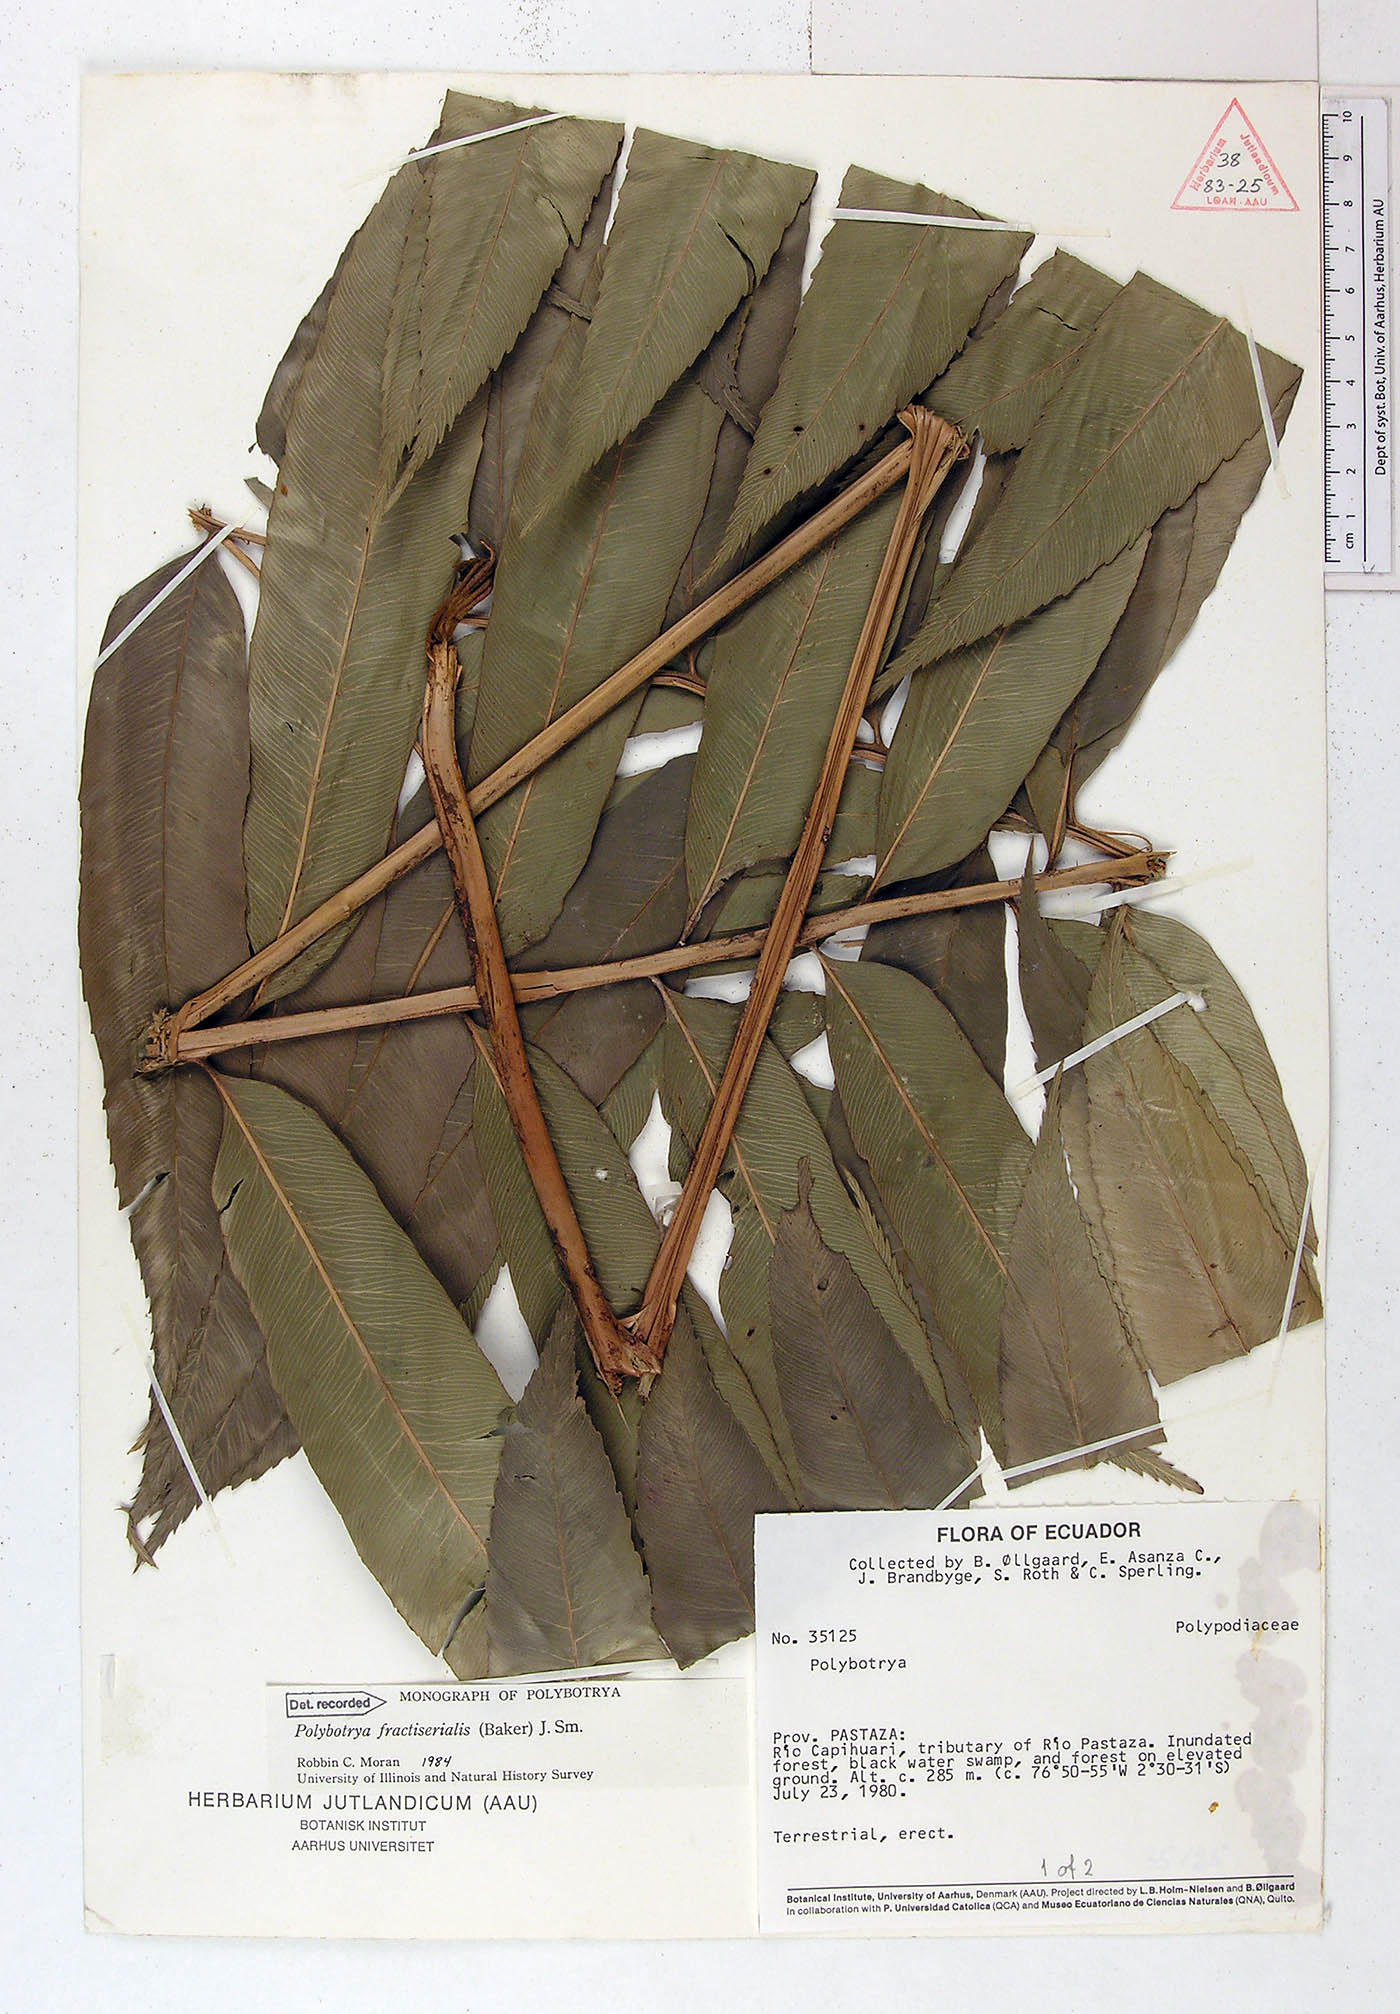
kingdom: Plantae
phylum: Tracheophyta
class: Polypodiopsida
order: Polypodiales
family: Dryopteridaceae
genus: Polybotrya
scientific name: Polybotrya fractiserialis
